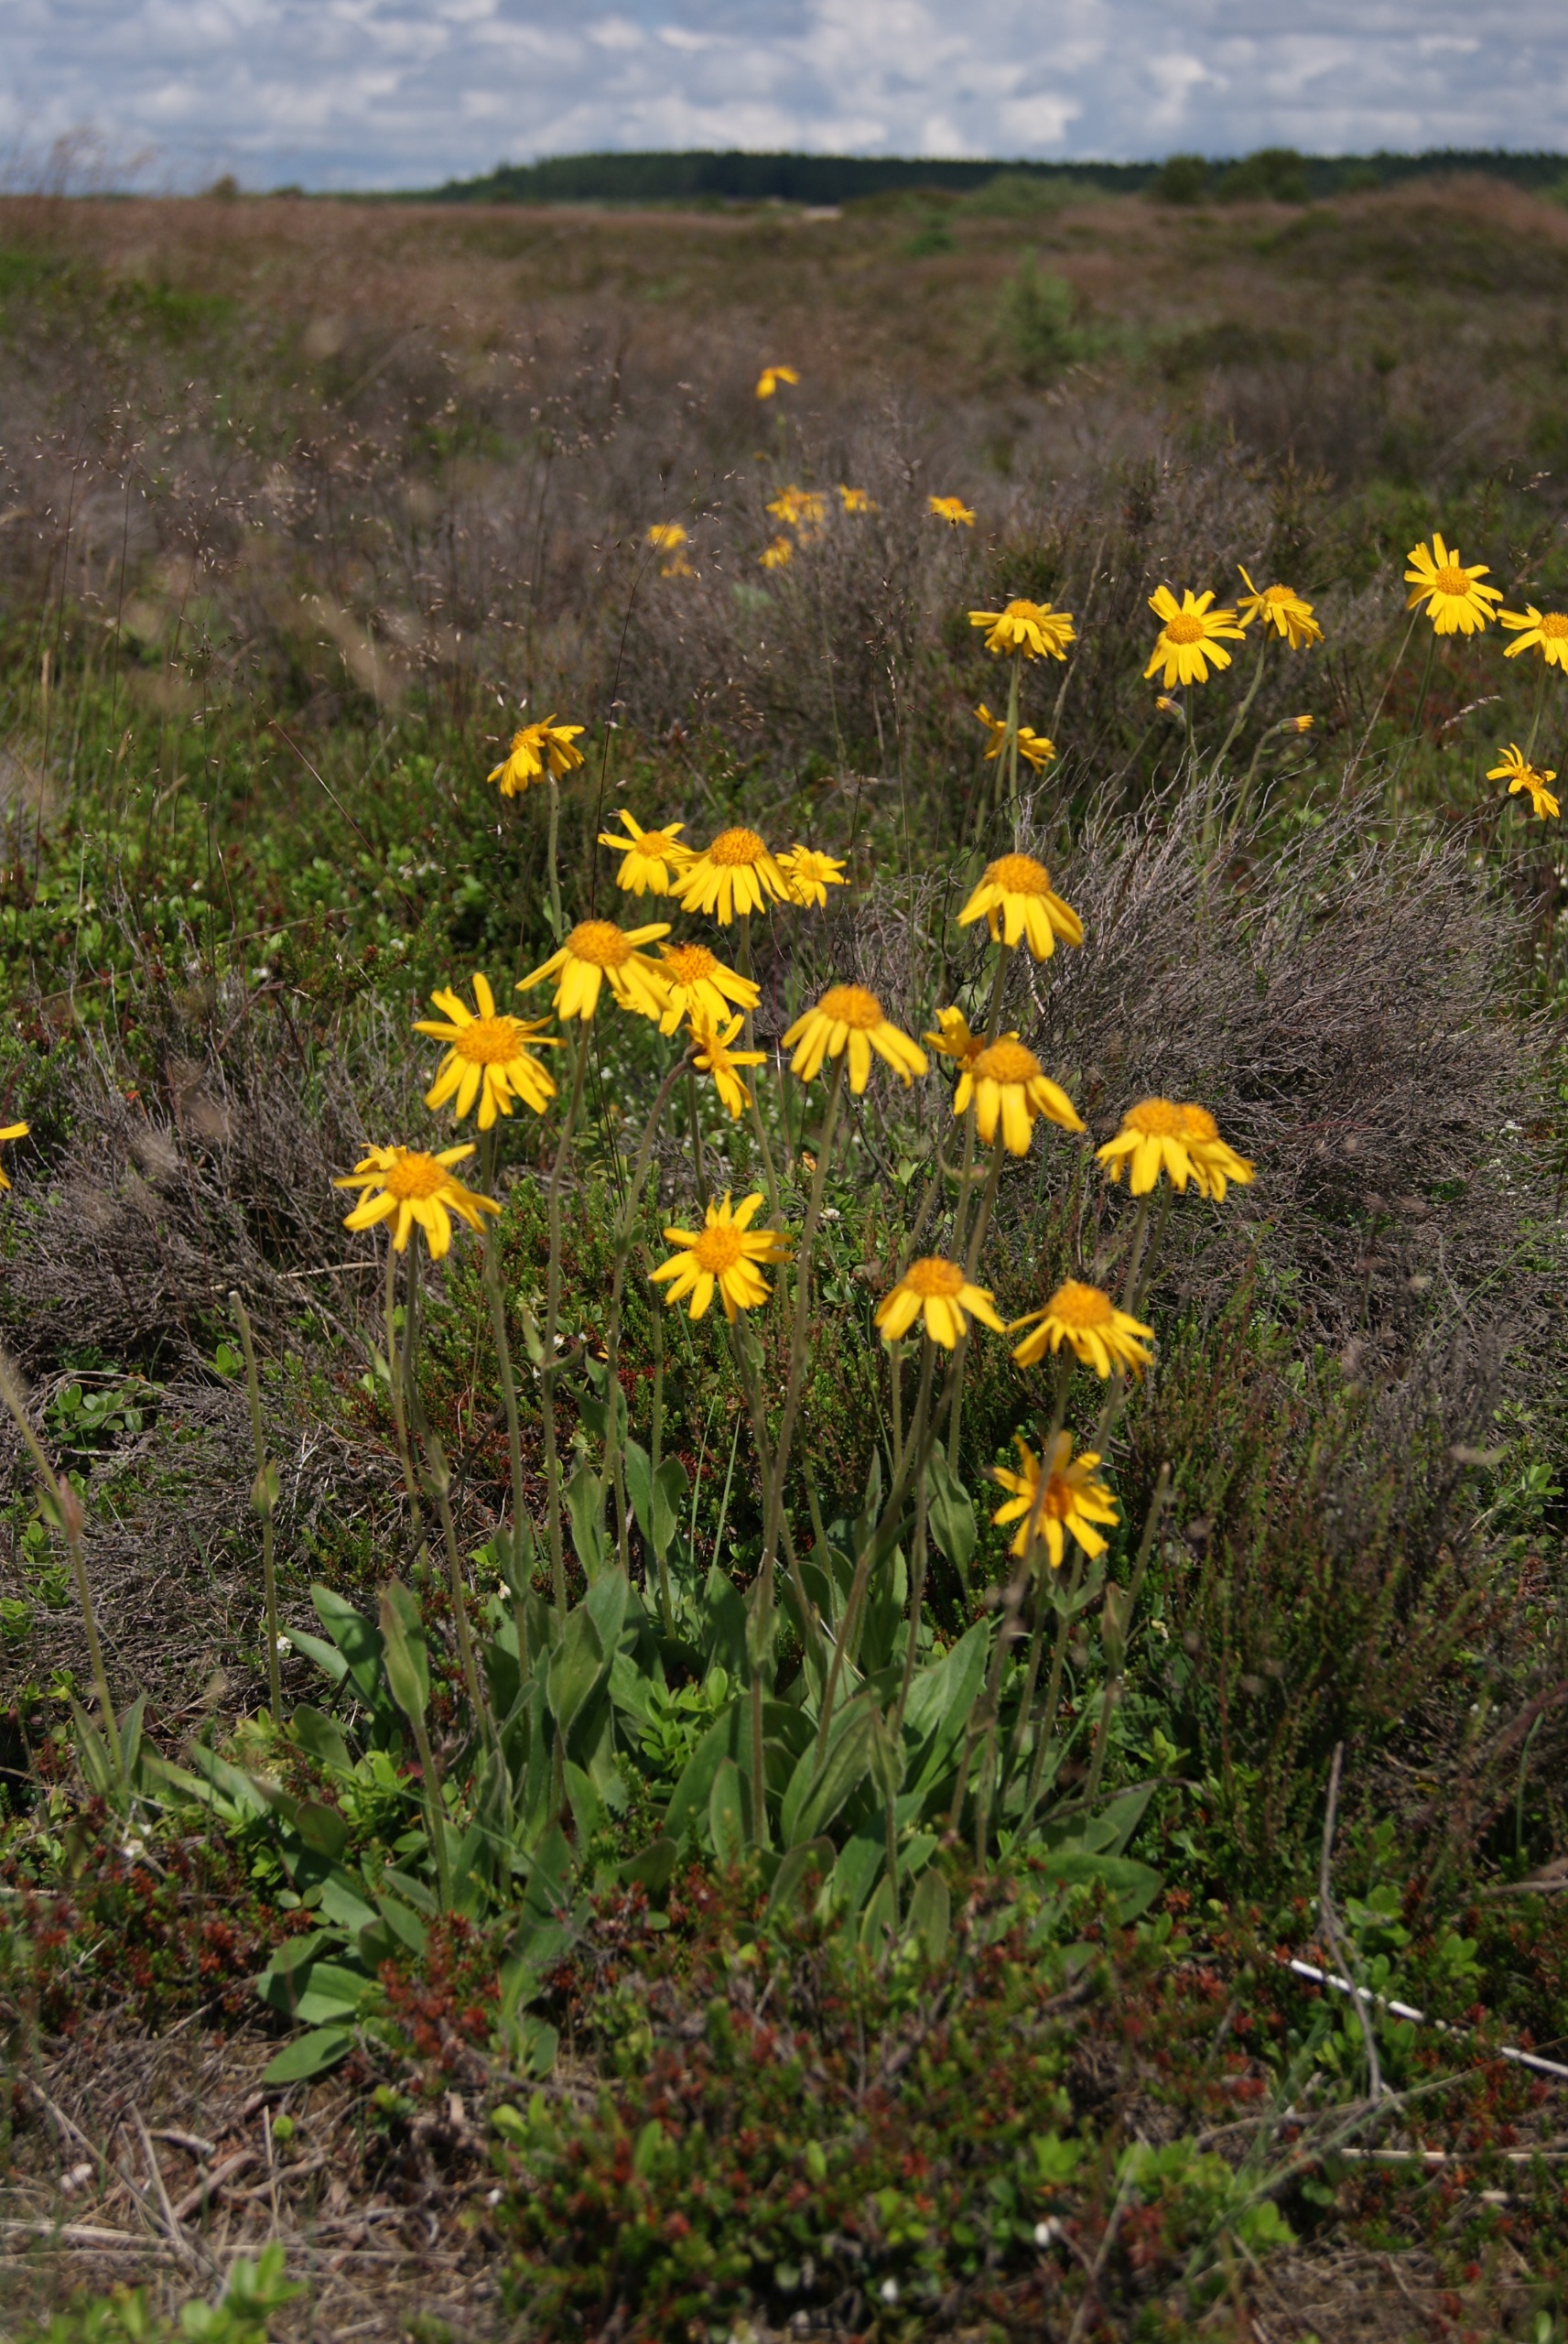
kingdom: Plantae
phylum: Tracheophyta
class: Magnoliopsida
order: Asterales
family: Asteraceae
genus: Arnica
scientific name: Arnica montana
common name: Guldblomme
